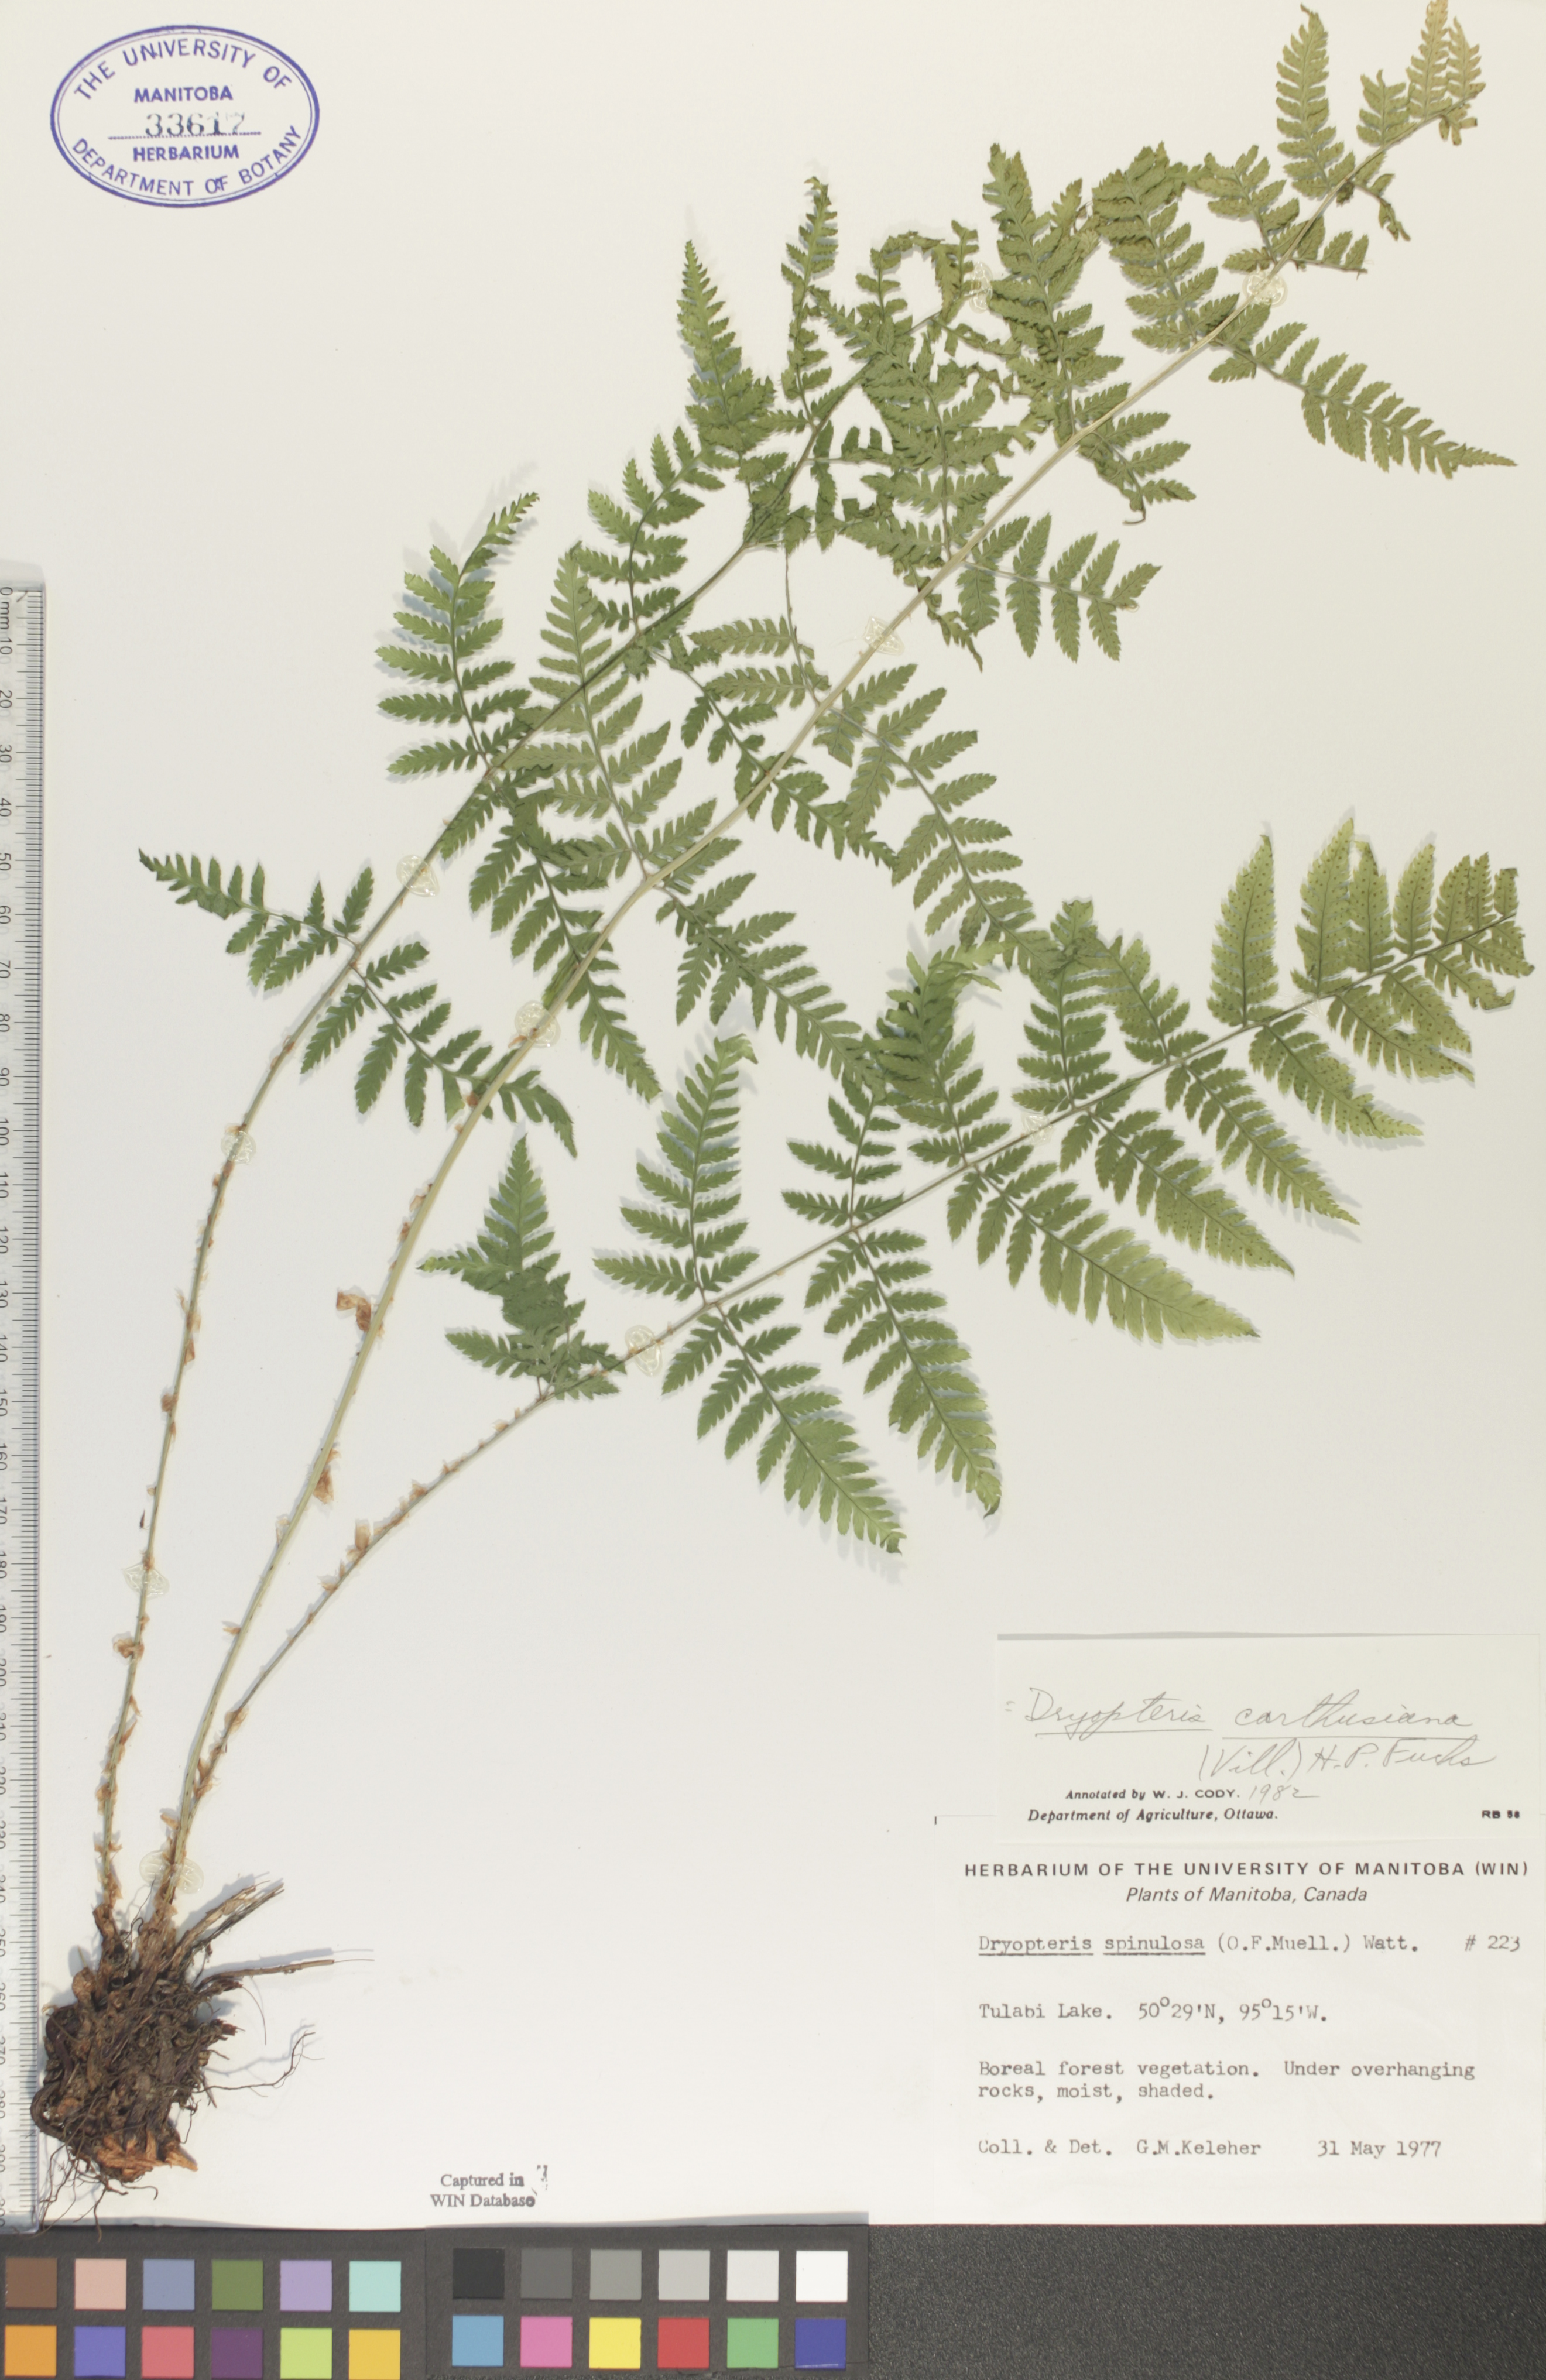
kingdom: Plantae
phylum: Tracheophyta
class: Polypodiopsida
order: Polypodiales
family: Dryopteridaceae
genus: Dryopteris
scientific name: Dryopteris carthusiana
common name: Narrow buckler-fern
